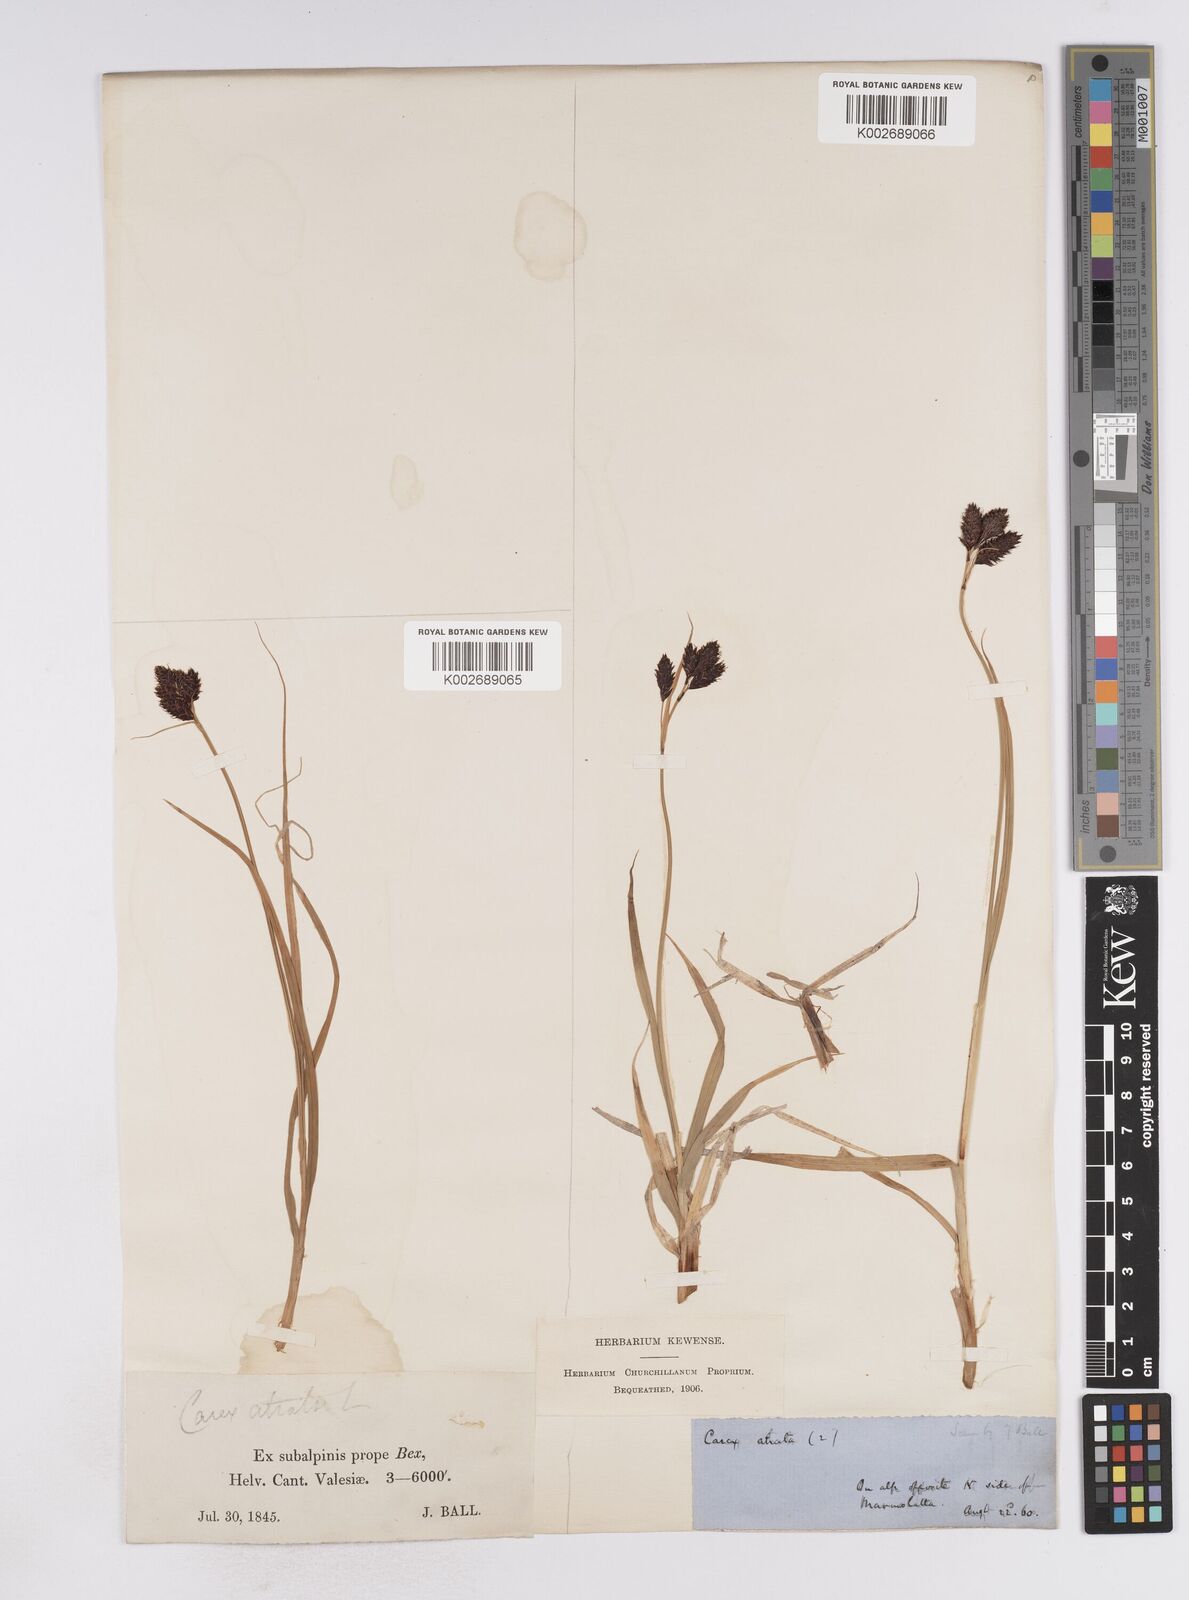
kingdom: Plantae
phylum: Tracheophyta
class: Liliopsida
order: Poales
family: Cyperaceae
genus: Carex
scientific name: Carex atrata
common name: Black alpine sedge
